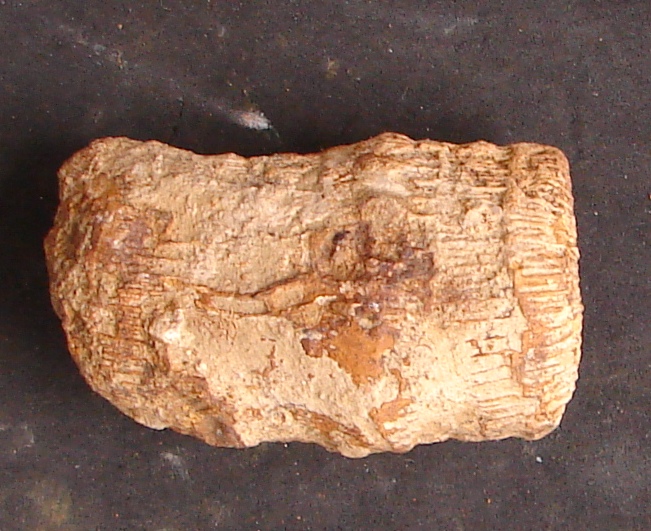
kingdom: Animalia
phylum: Cnidaria
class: Anthozoa
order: Scleractinia
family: Thecosmiliidae
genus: Montlivaltia
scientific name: Montlivaltia
